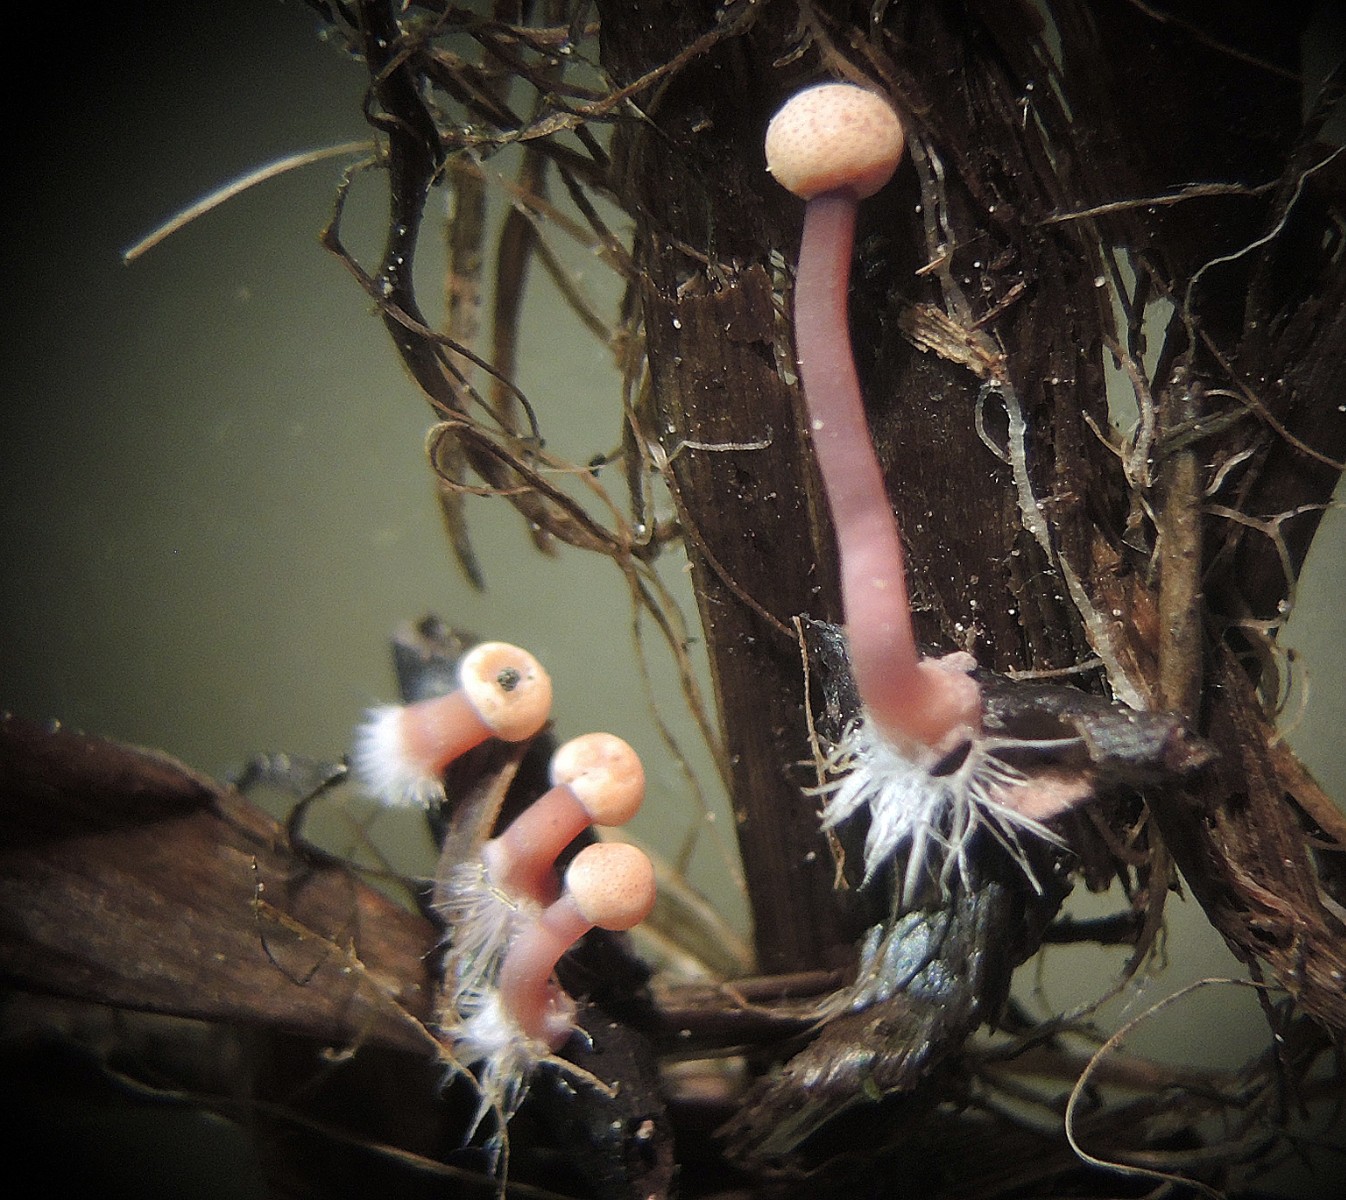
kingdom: Fungi
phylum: Ascomycota
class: Sordariomycetes
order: Hypocreales
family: Clavicipitaceae
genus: Claviceps
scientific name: Claviceps purpurea
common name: almindelig meldrøjer
